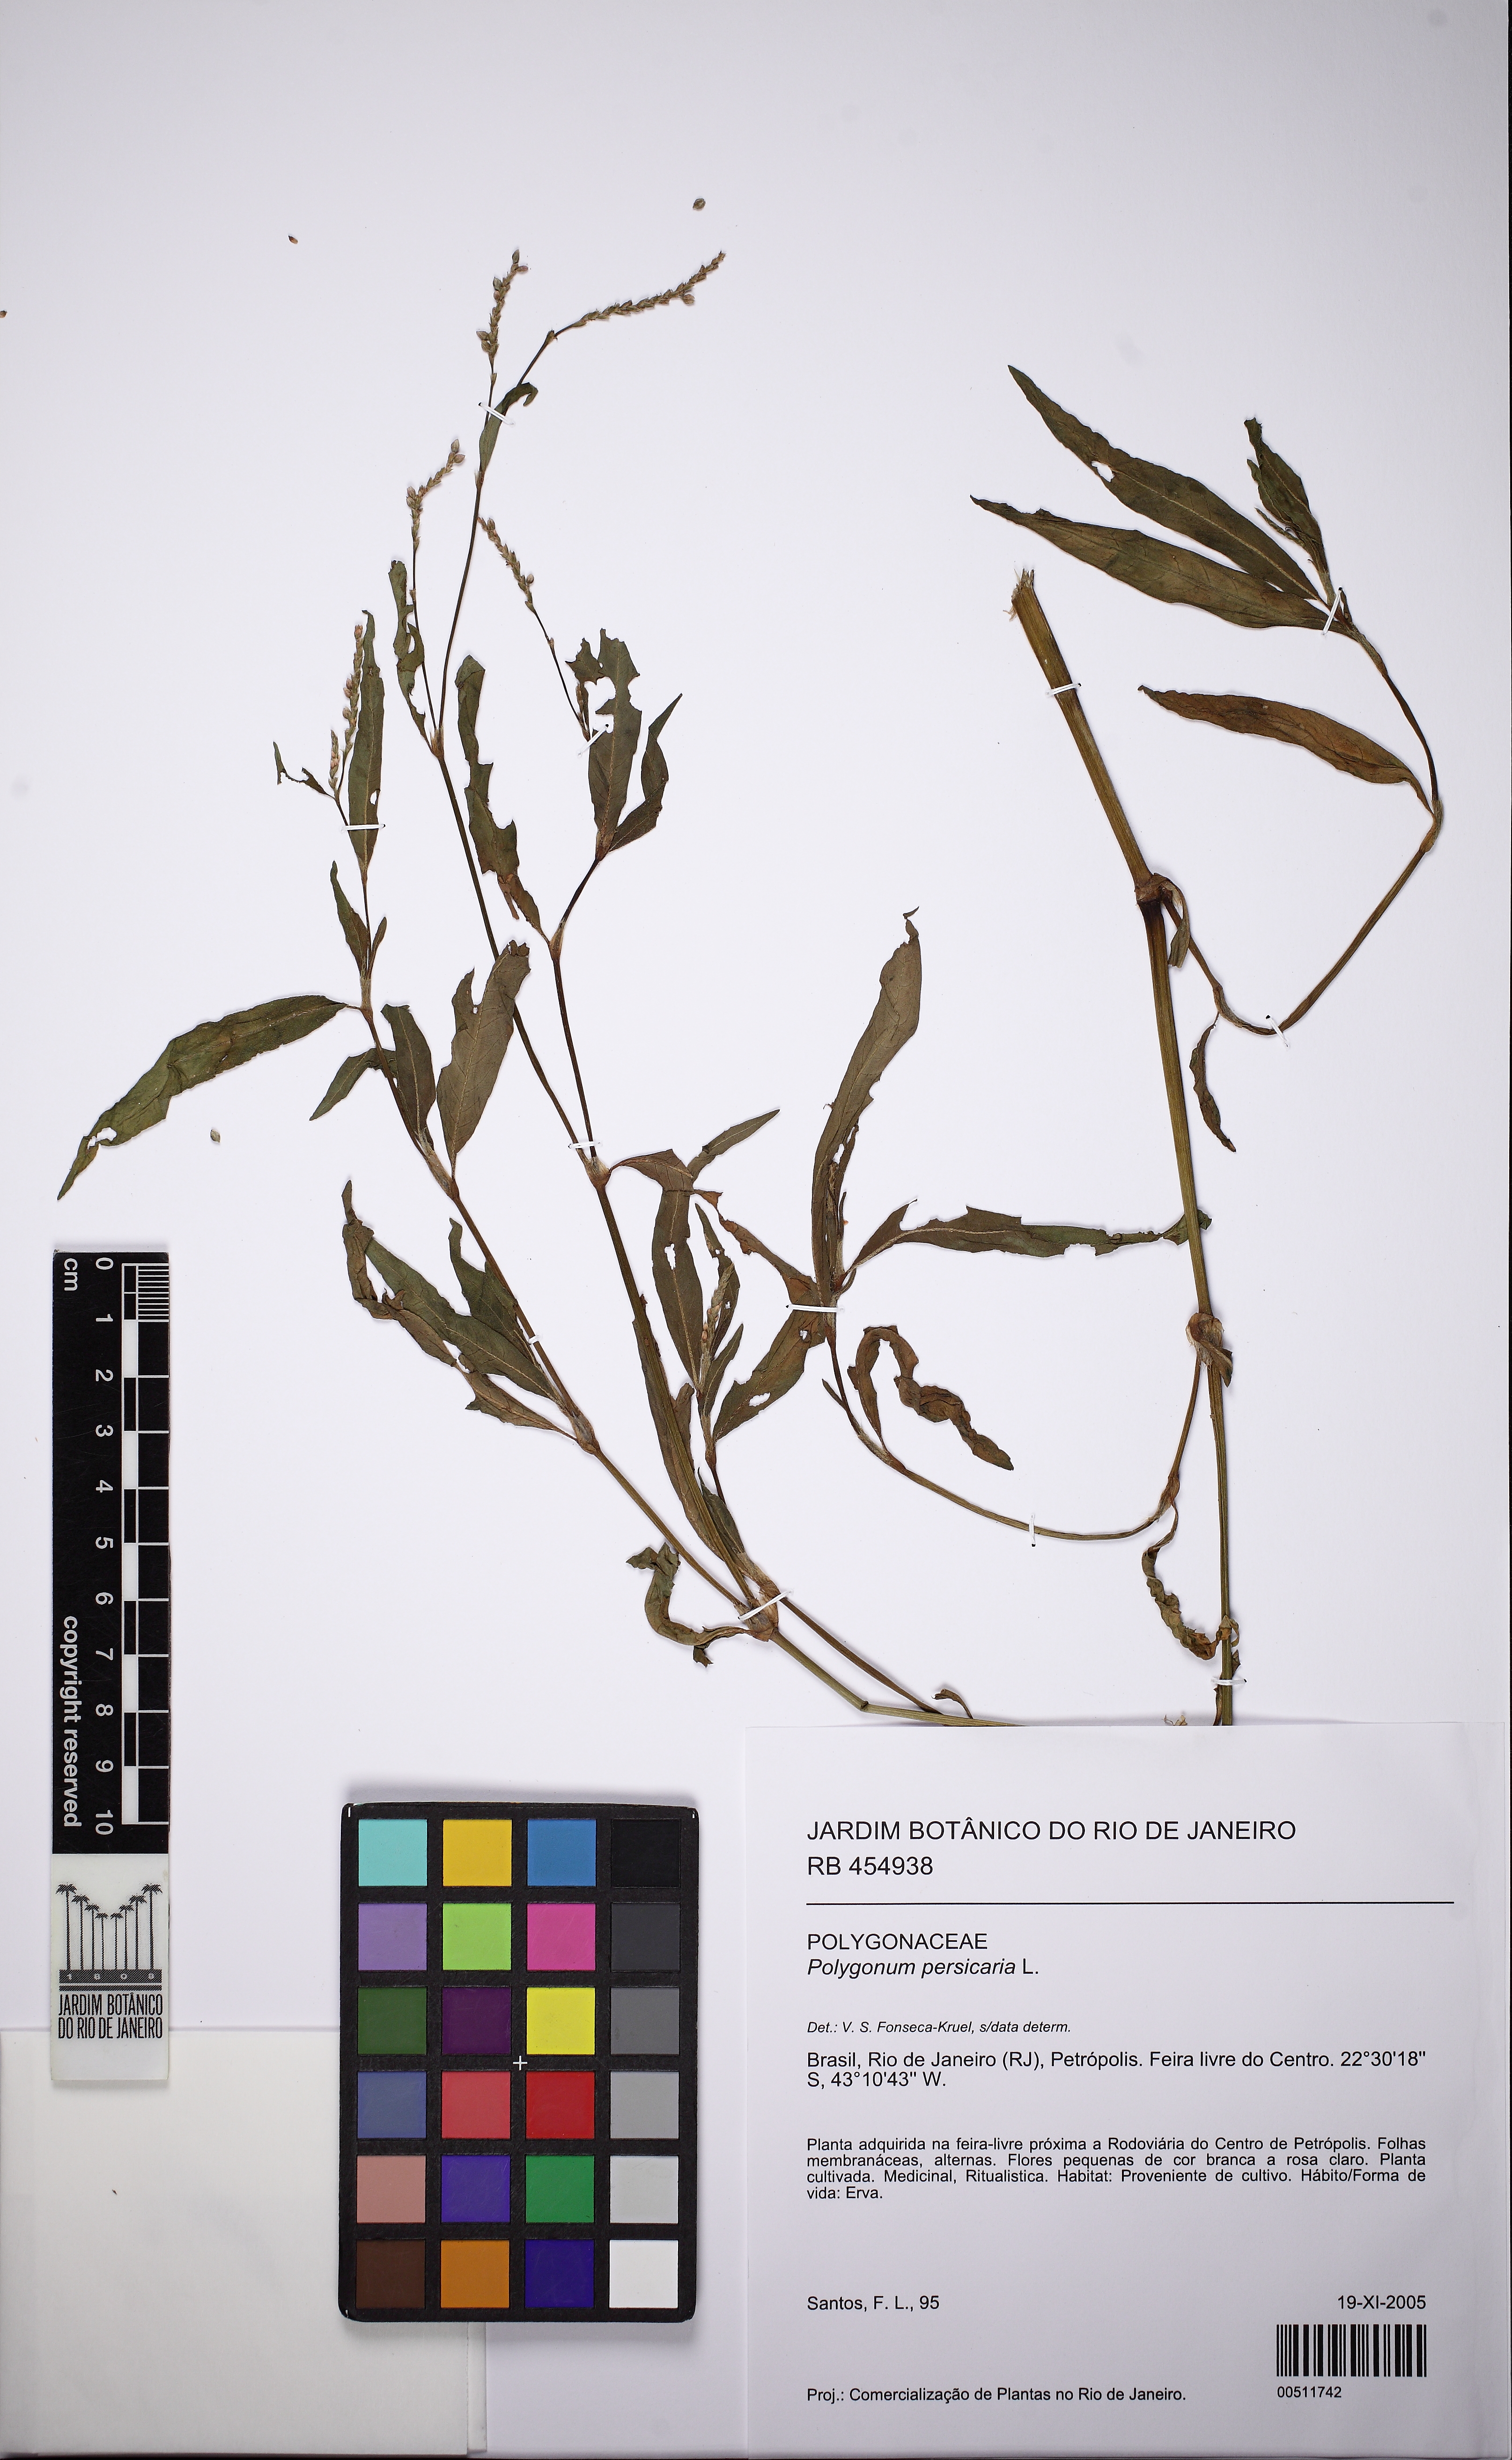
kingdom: Plantae
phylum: Tracheophyta
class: Magnoliopsida
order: Caryophyllales
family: Polygonaceae
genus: Persicaria
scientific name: Persicaria maculosa
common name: Redshank
